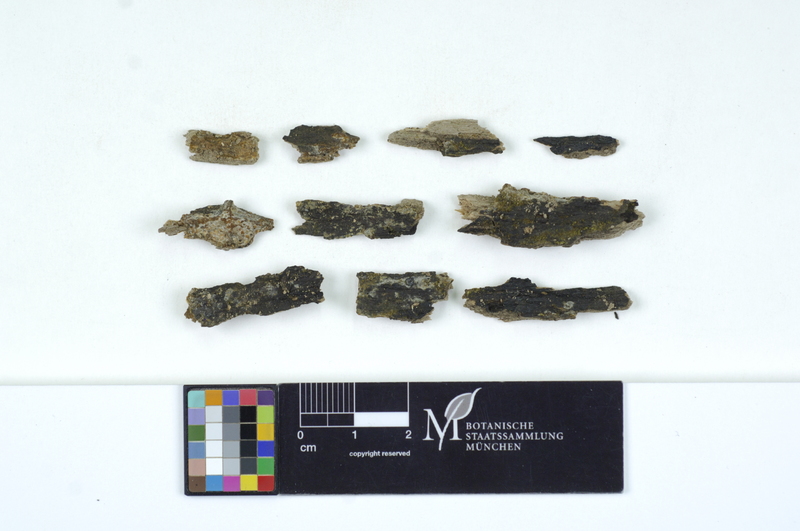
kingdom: Fungi
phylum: Basidiomycota
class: Microbotryomycetes
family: Colacogloeaceae
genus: Colacogloea
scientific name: Colacogloea peniophorae
